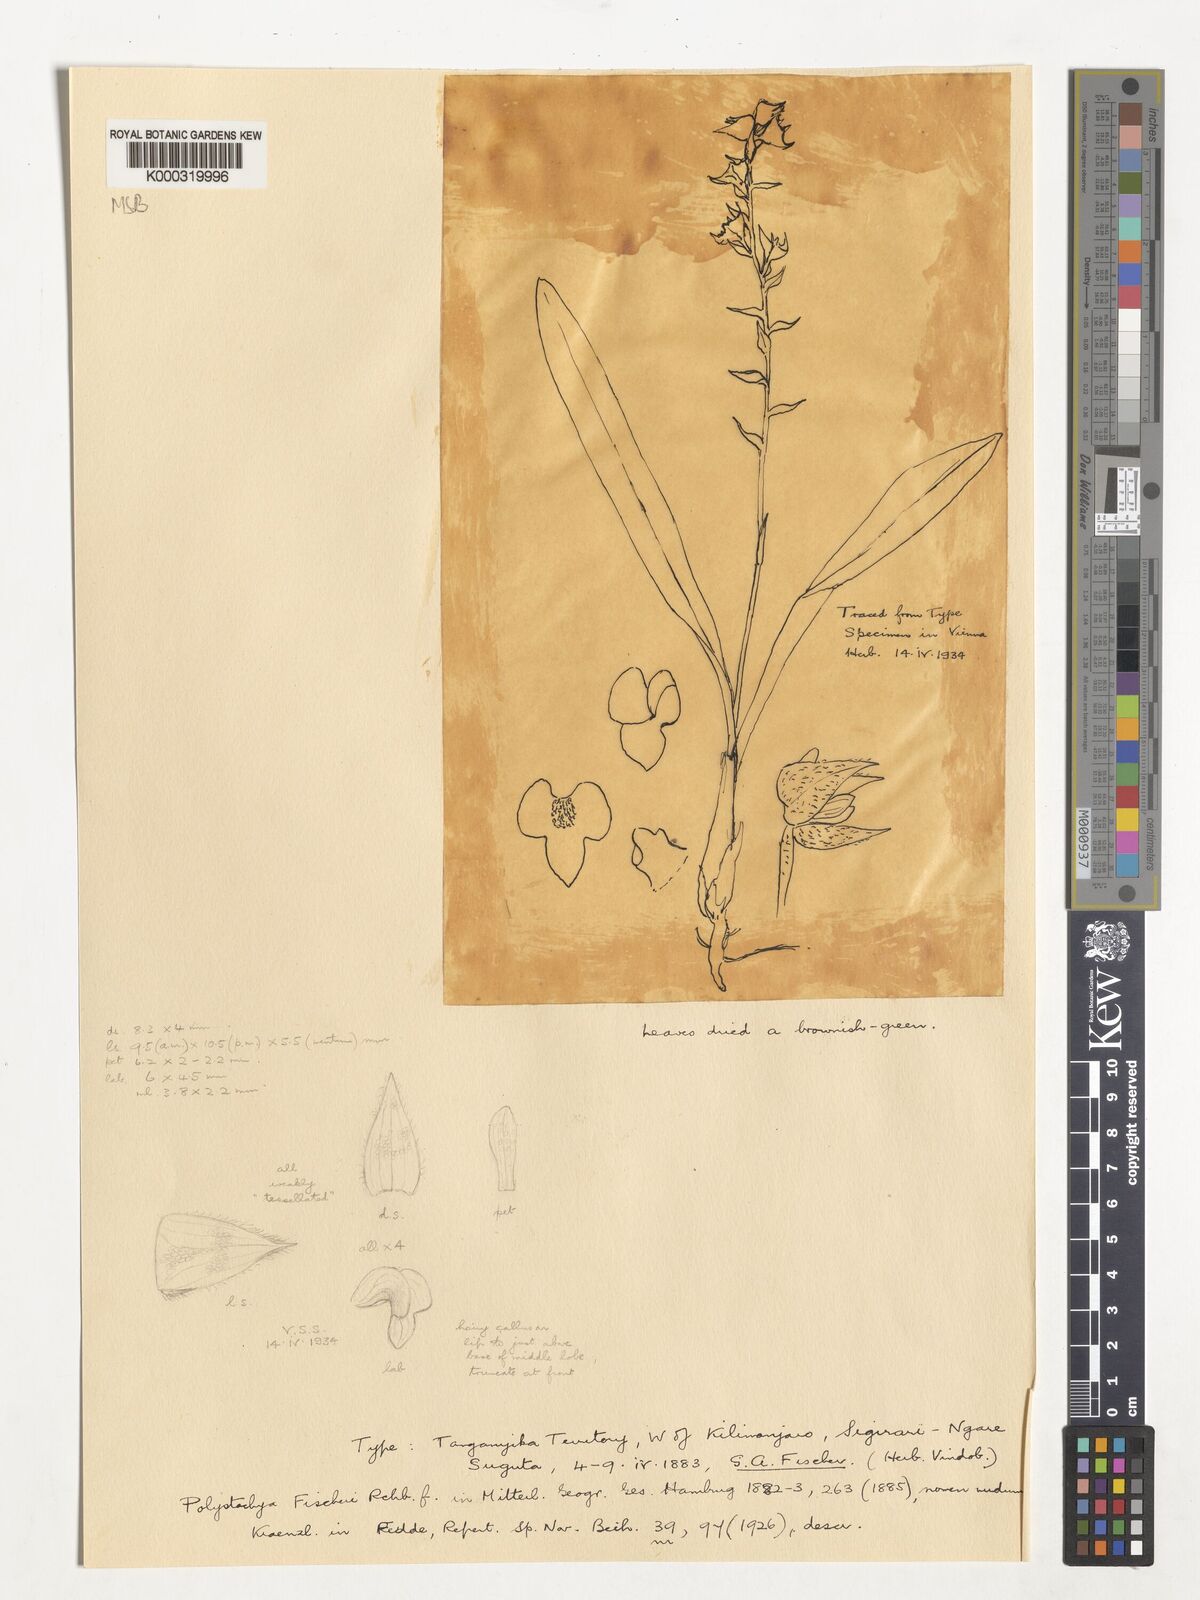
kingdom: Plantae
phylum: Tracheophyta
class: Liliopsida
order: Asparagales
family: Orchidaceae
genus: Polystachya
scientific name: Polystachya fischeri
